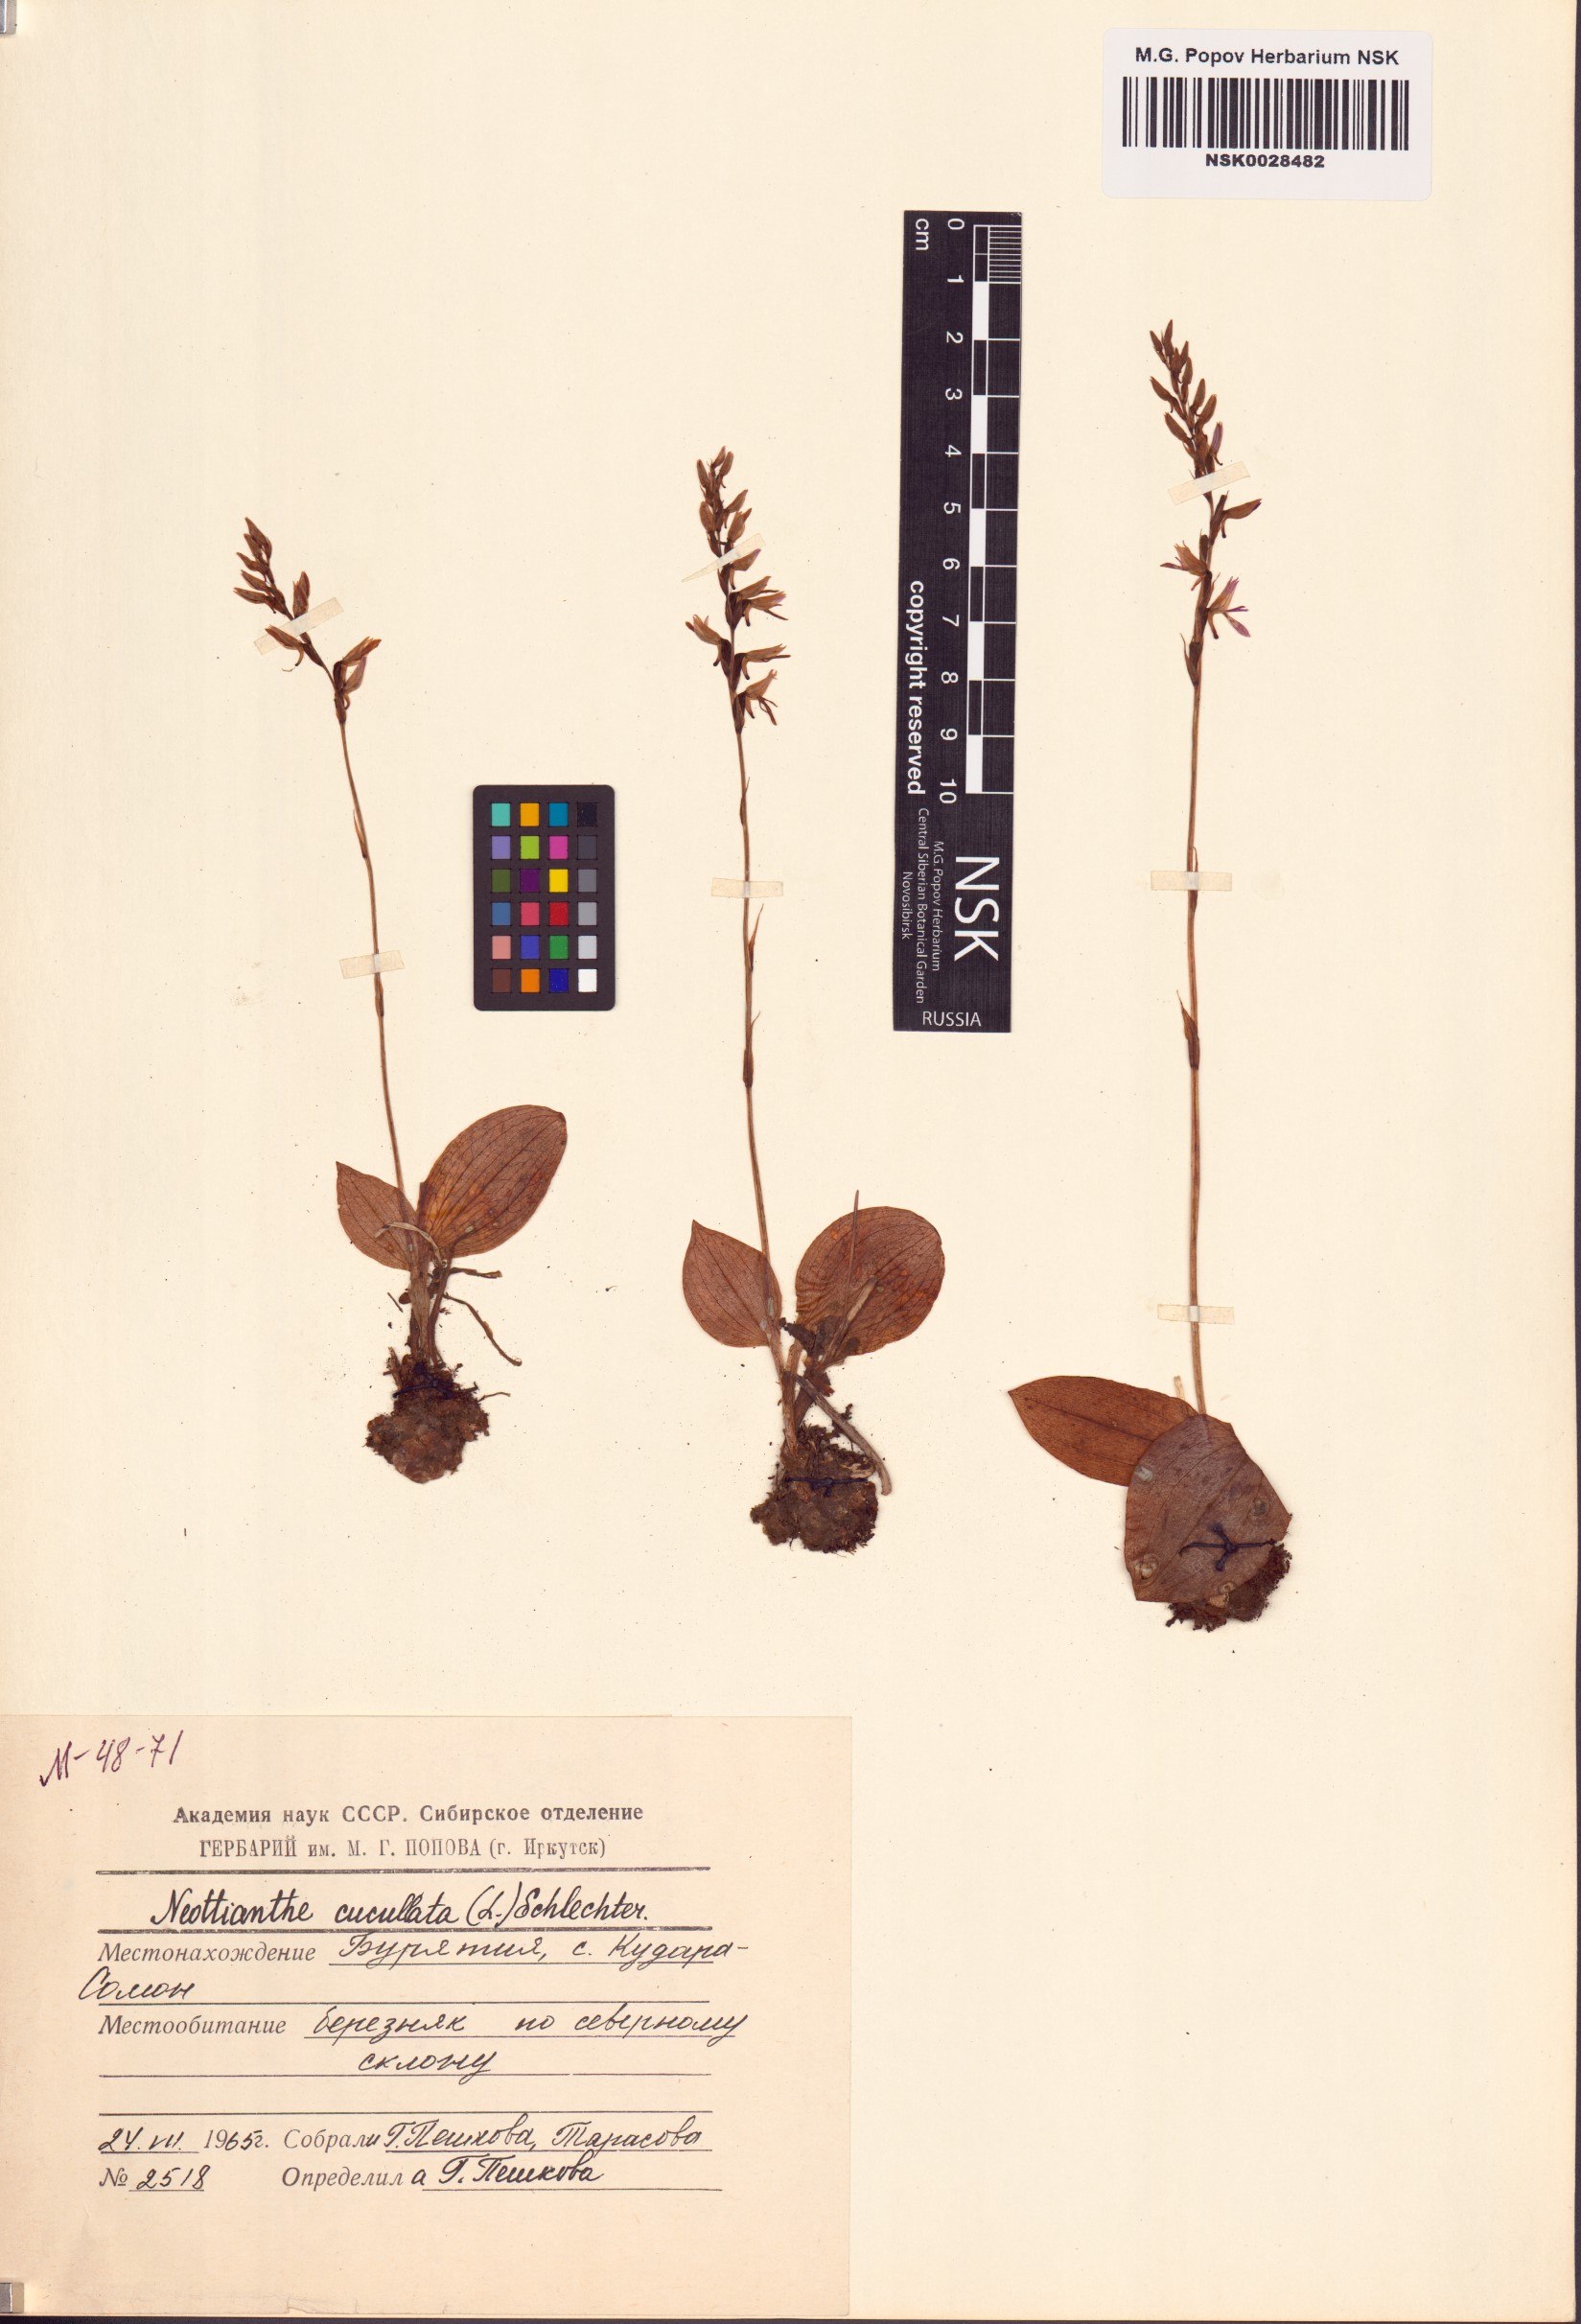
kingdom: Plantae
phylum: Tracheophyta
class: Liliopsida
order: Asparagales
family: Orchidaceae
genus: Hemipilia
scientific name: Hemipilia cucullata
